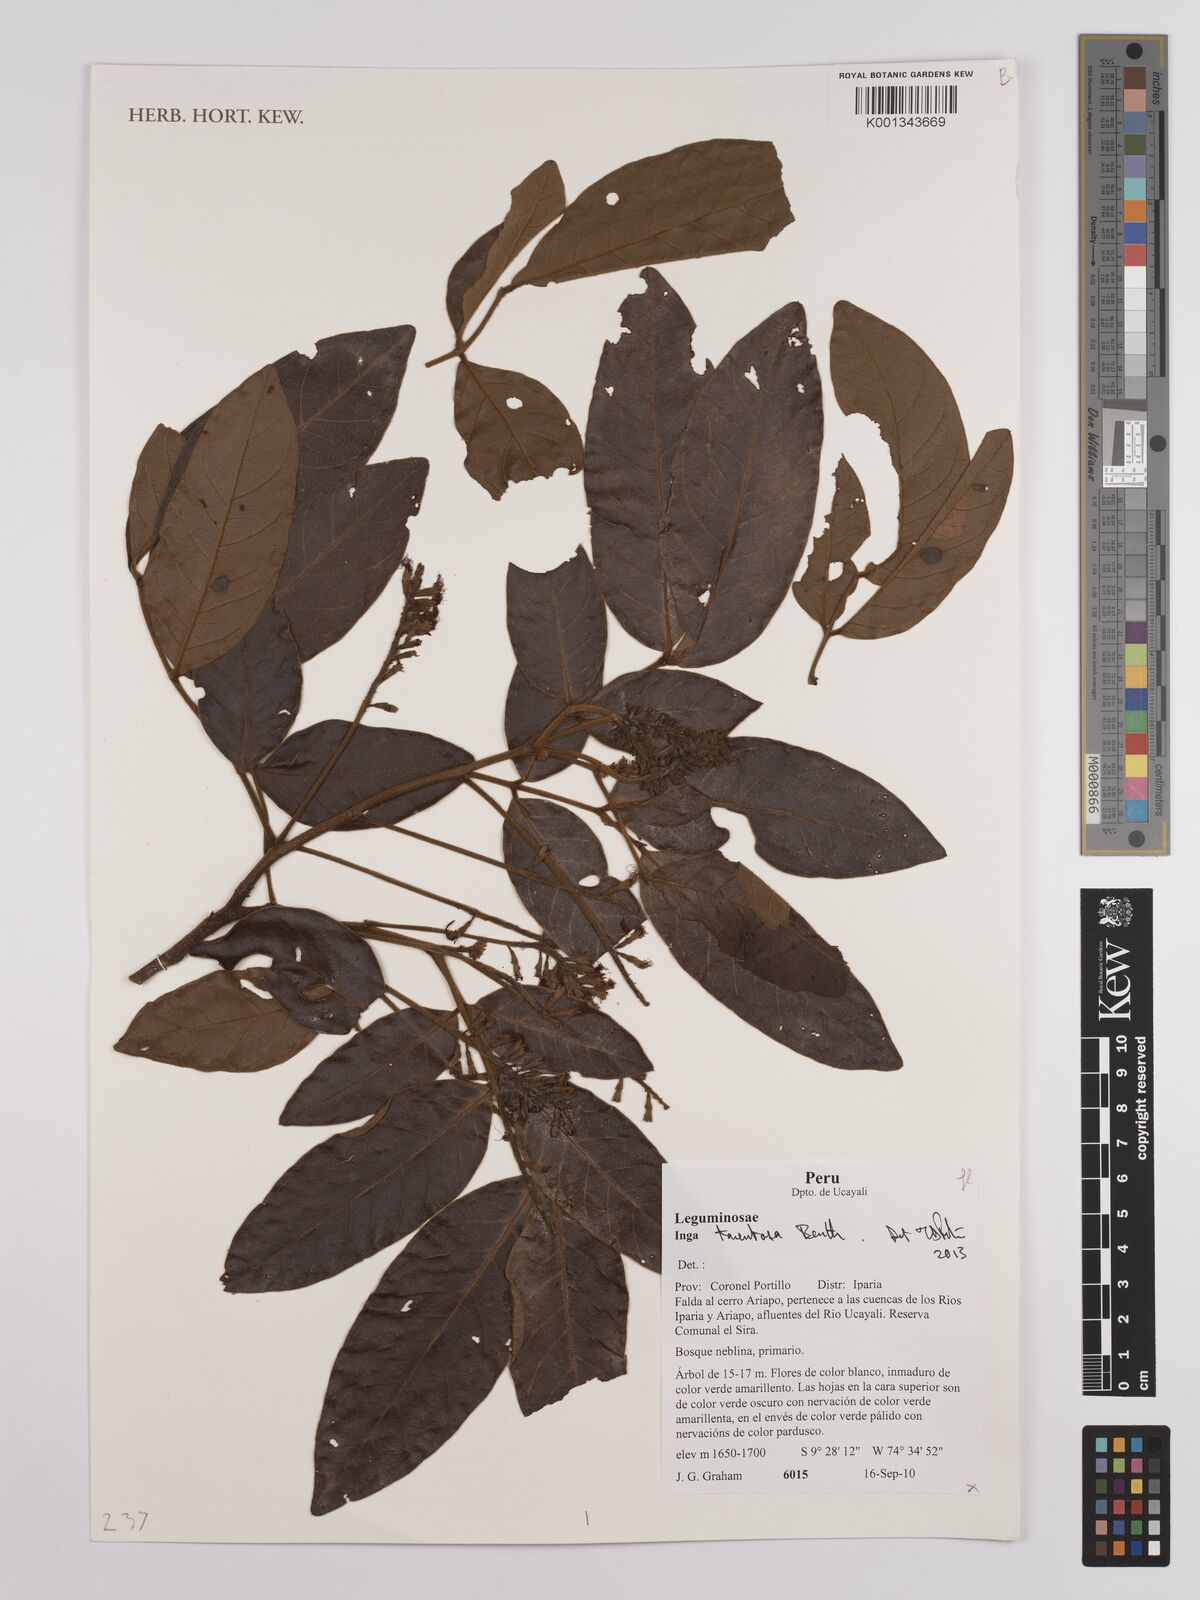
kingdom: Plantae
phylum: Tracheophyta
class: Magnoliopsida
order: Fabales
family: Fabaceae
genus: Inga
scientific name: Inga tomentosa
